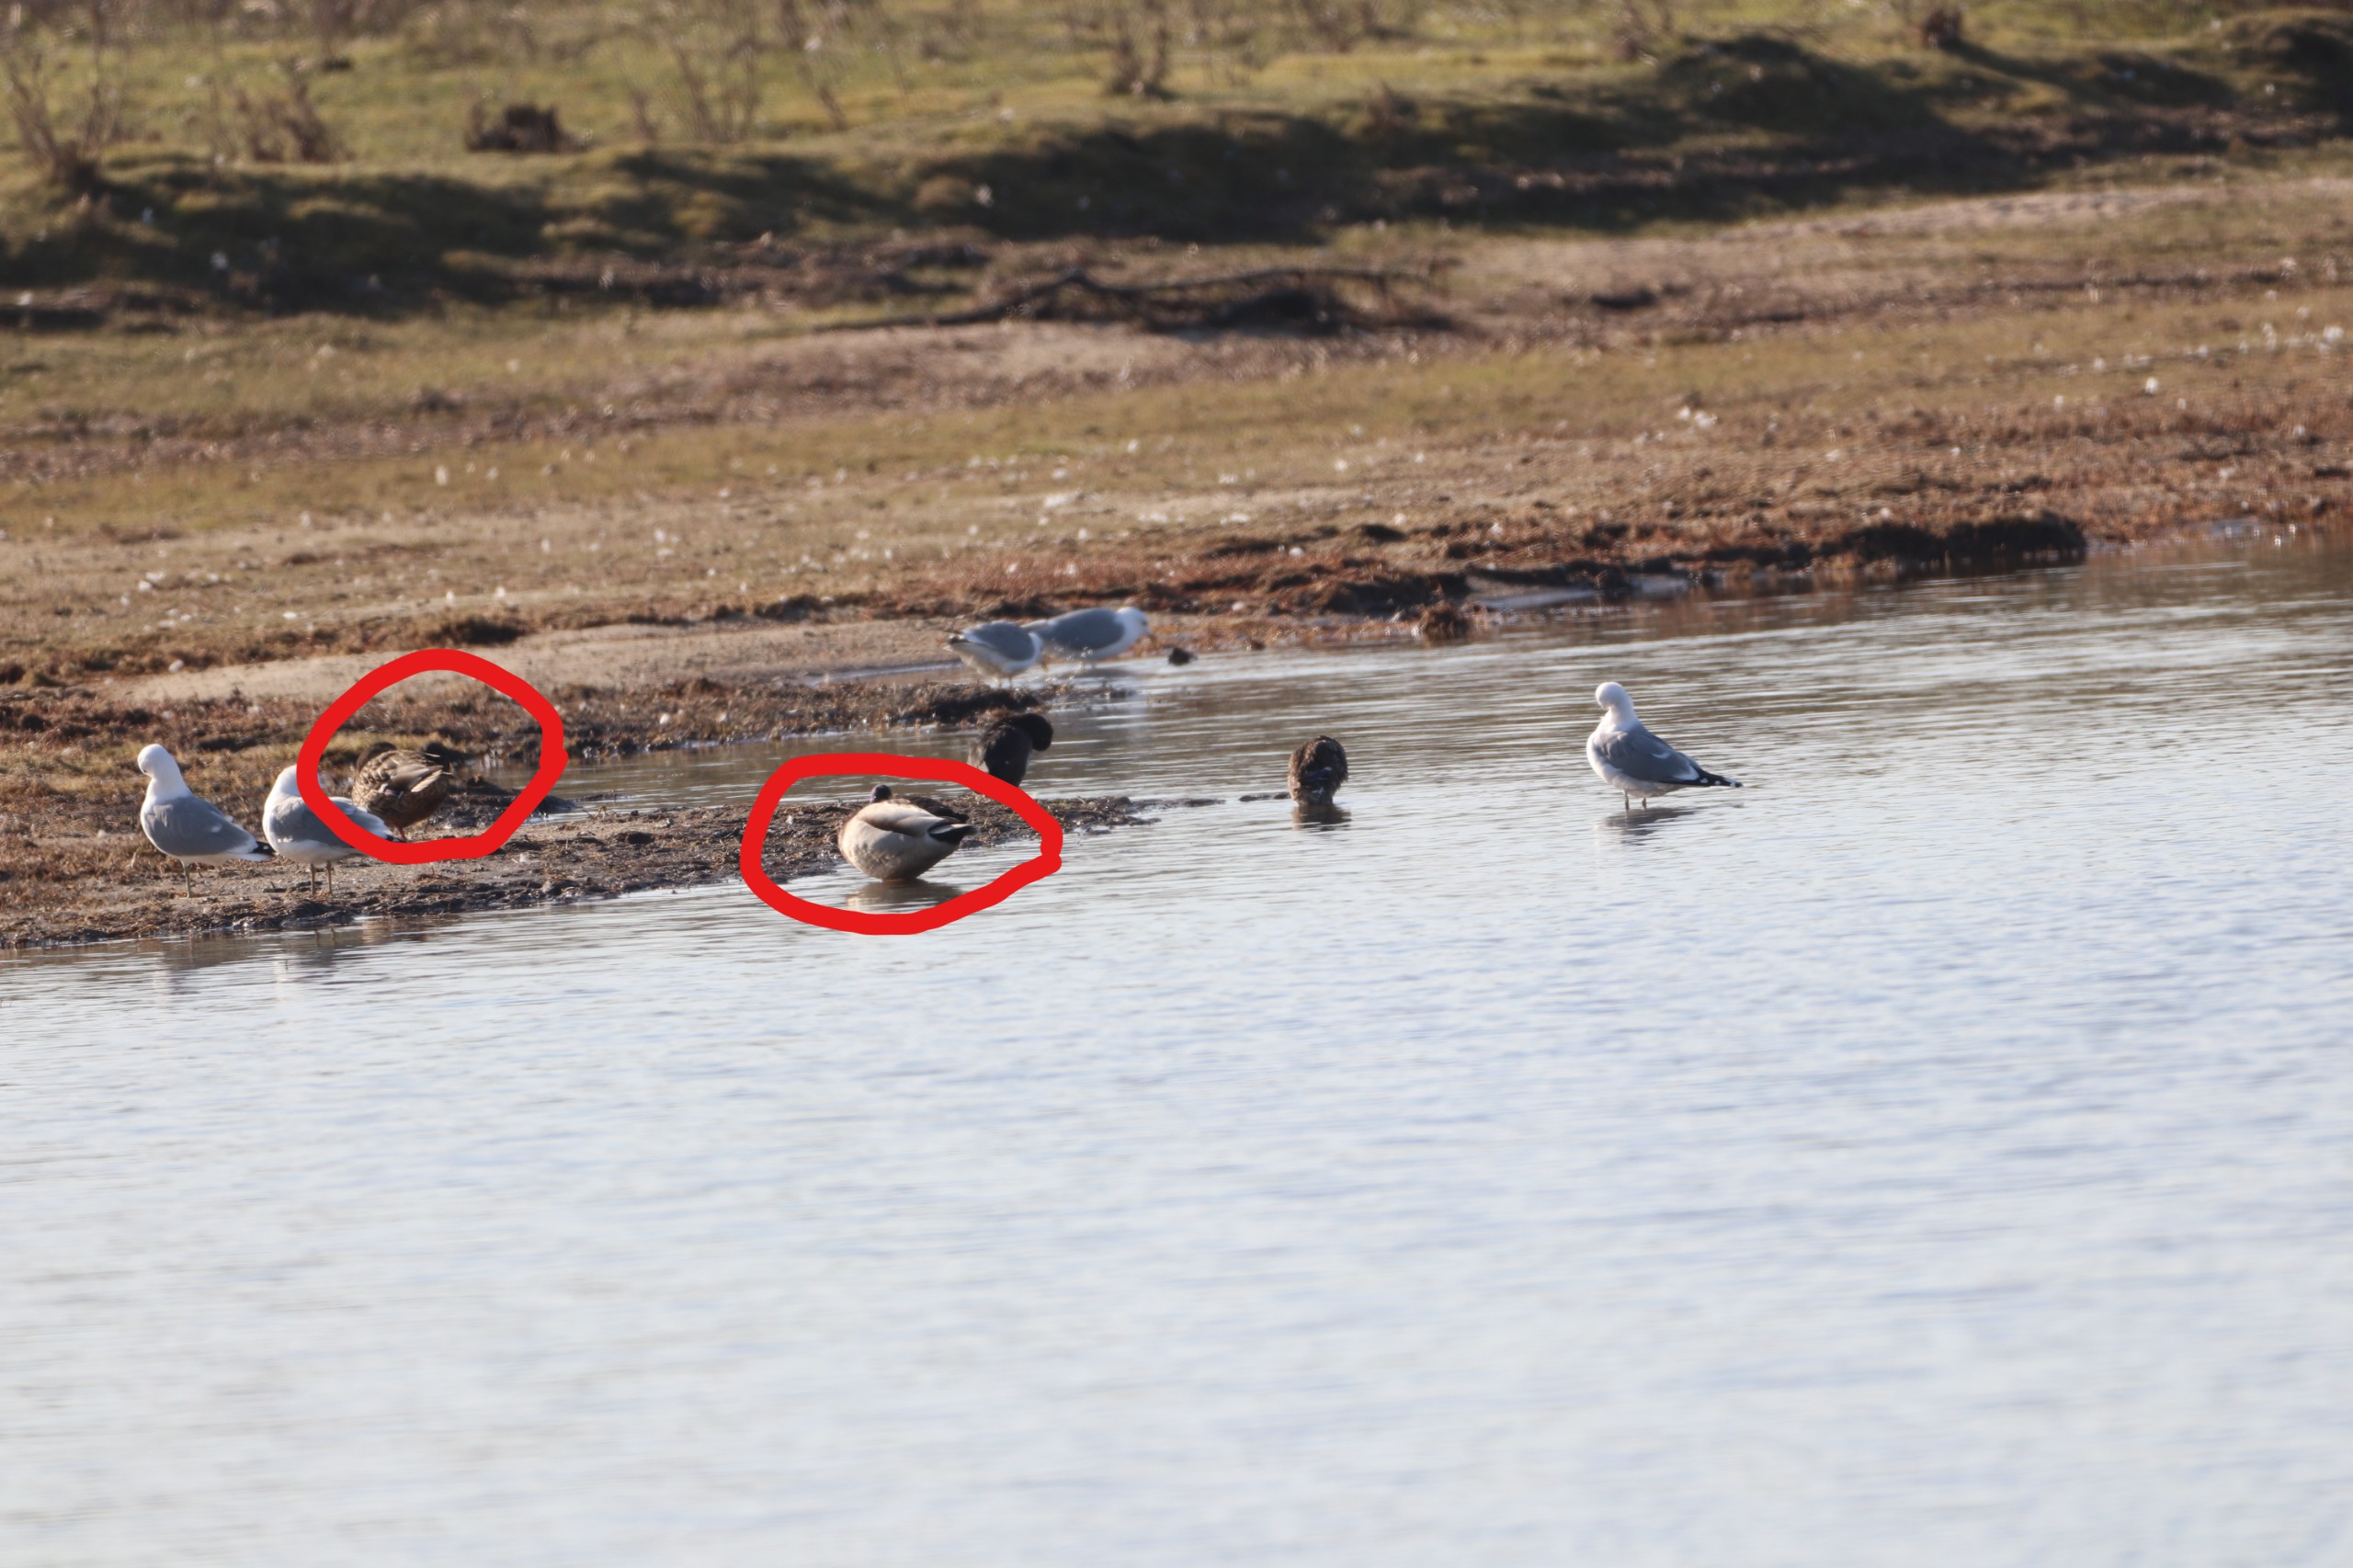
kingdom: Animalia
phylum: Chordata
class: Aves
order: Anseriformes
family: Anatidae
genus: Anas
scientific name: Anas platyrhynchos
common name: Gråand
